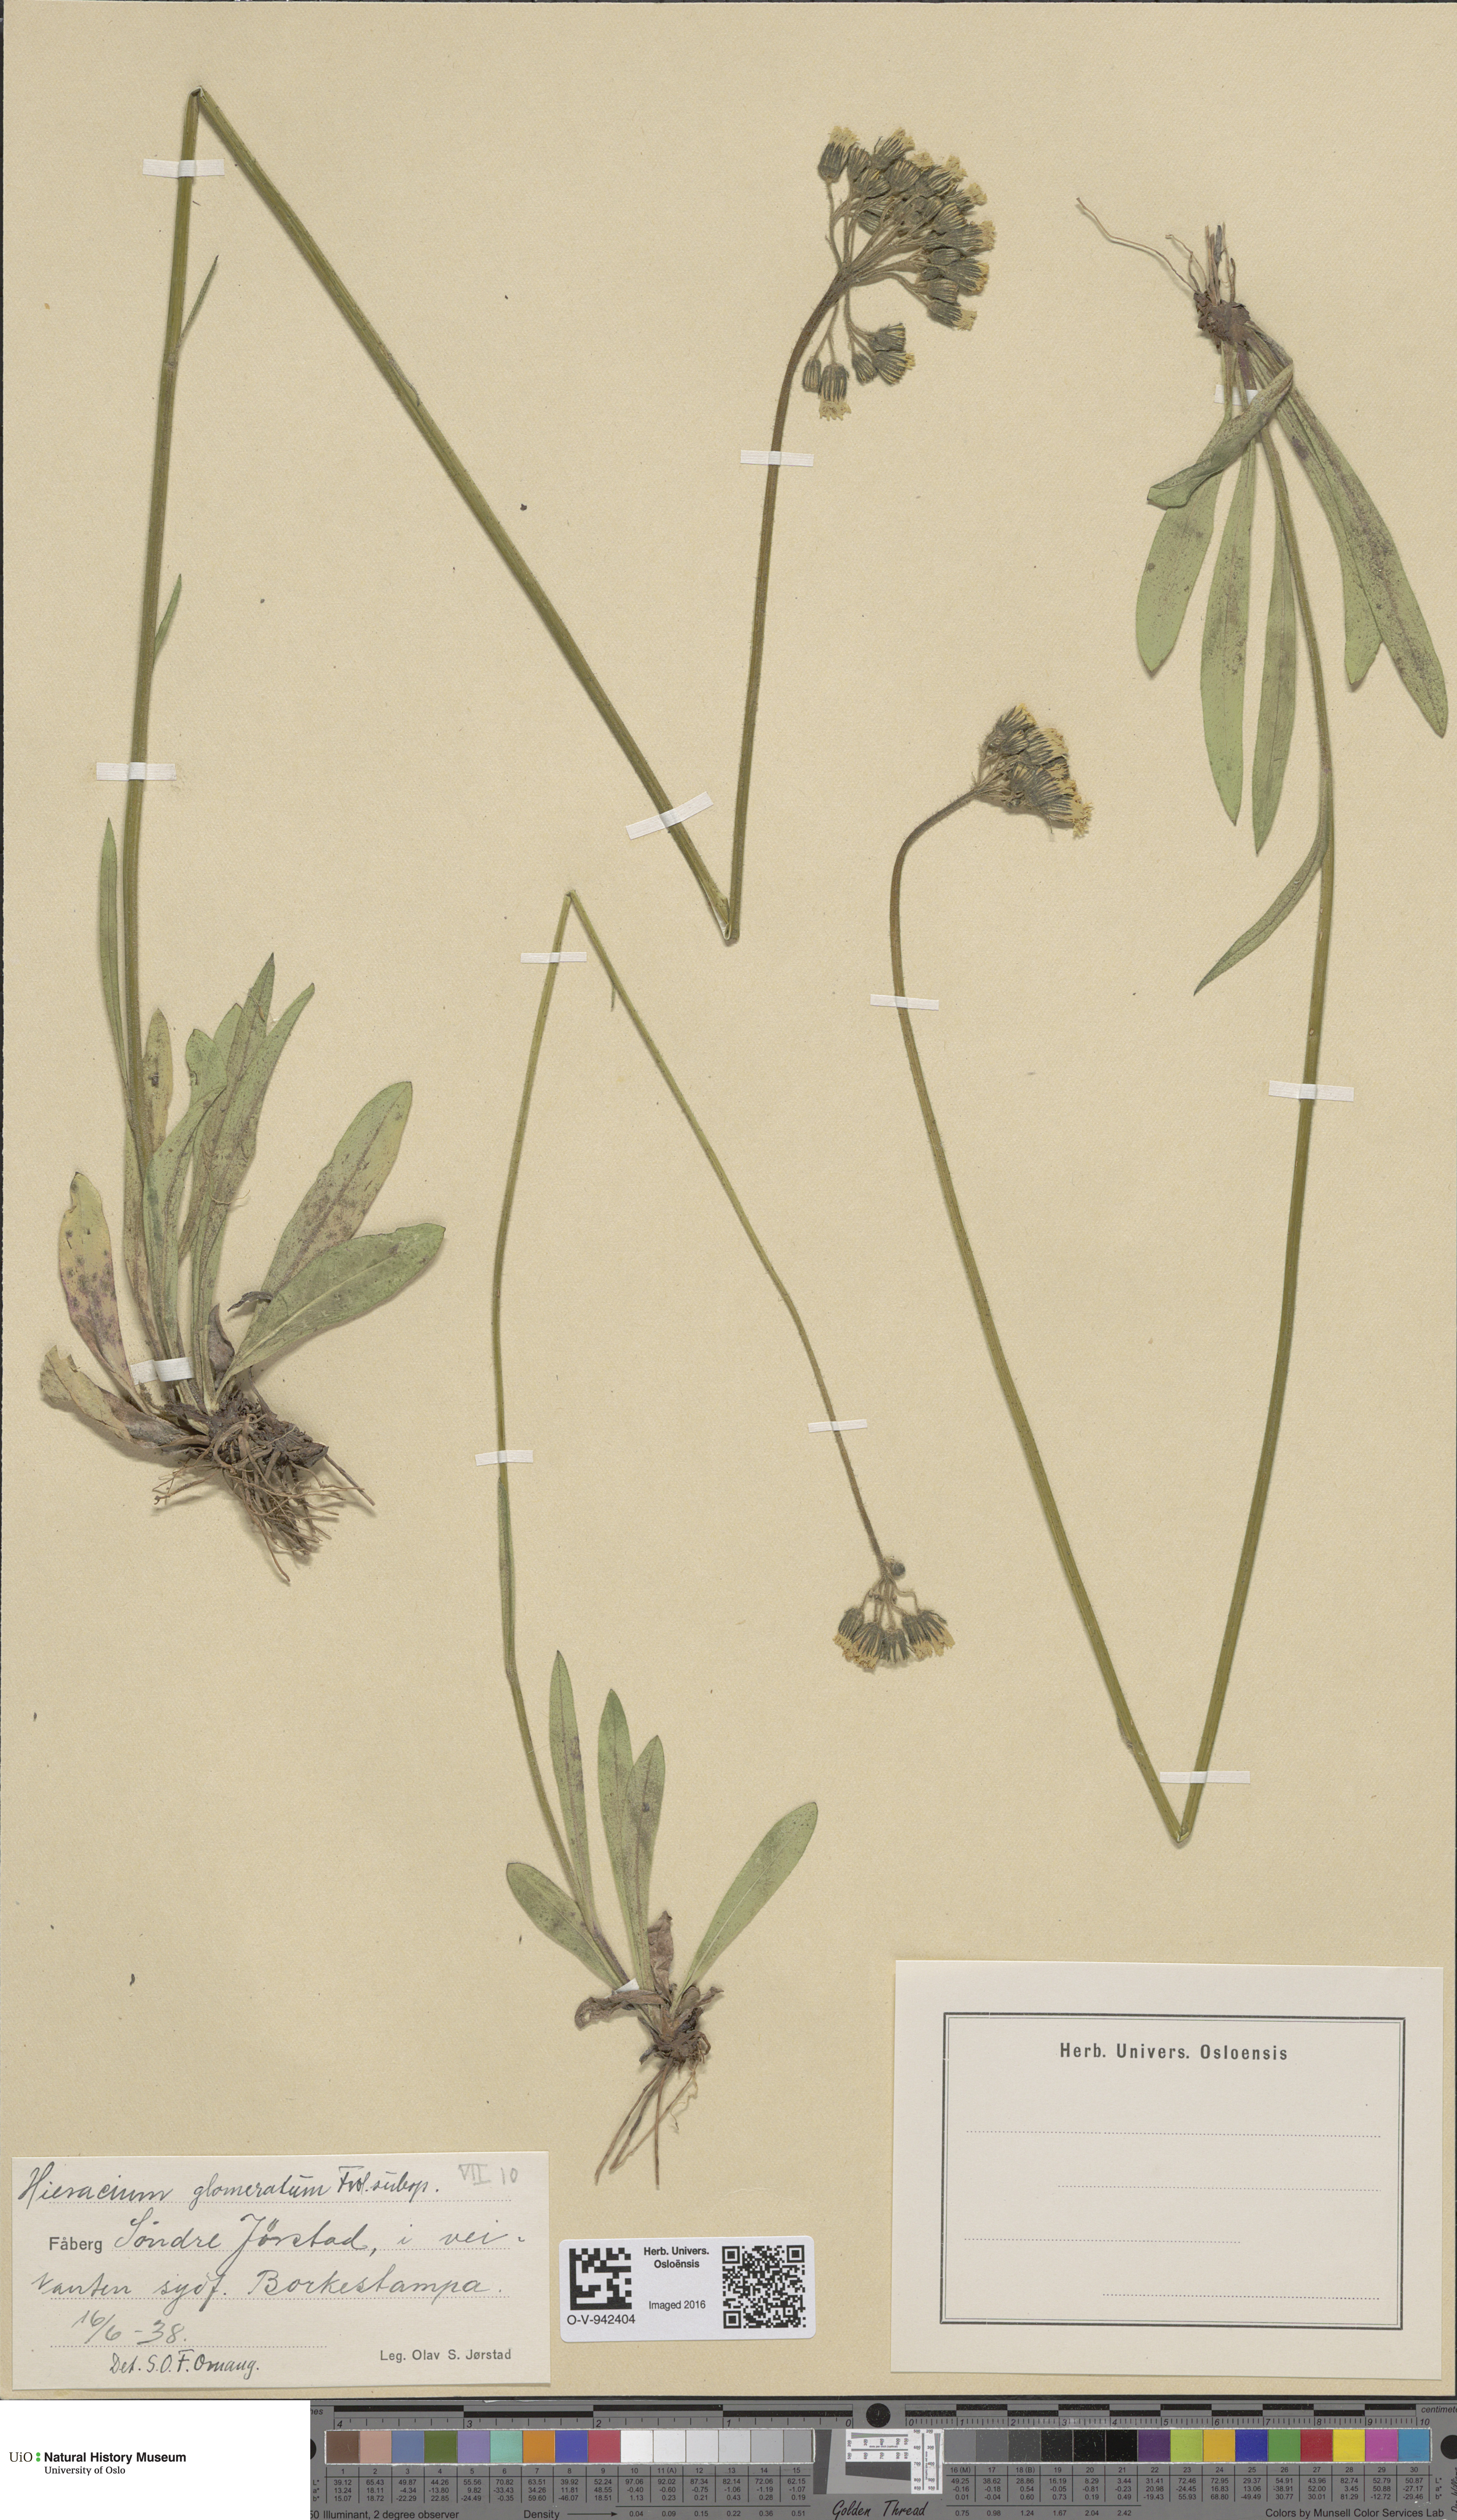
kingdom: Plantae
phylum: Tracheophyta
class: Magnoliopsida
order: Asterales
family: Asteraceae
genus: Pilosella
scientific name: Pilosella glomerata
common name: Queen devil hawkweed
